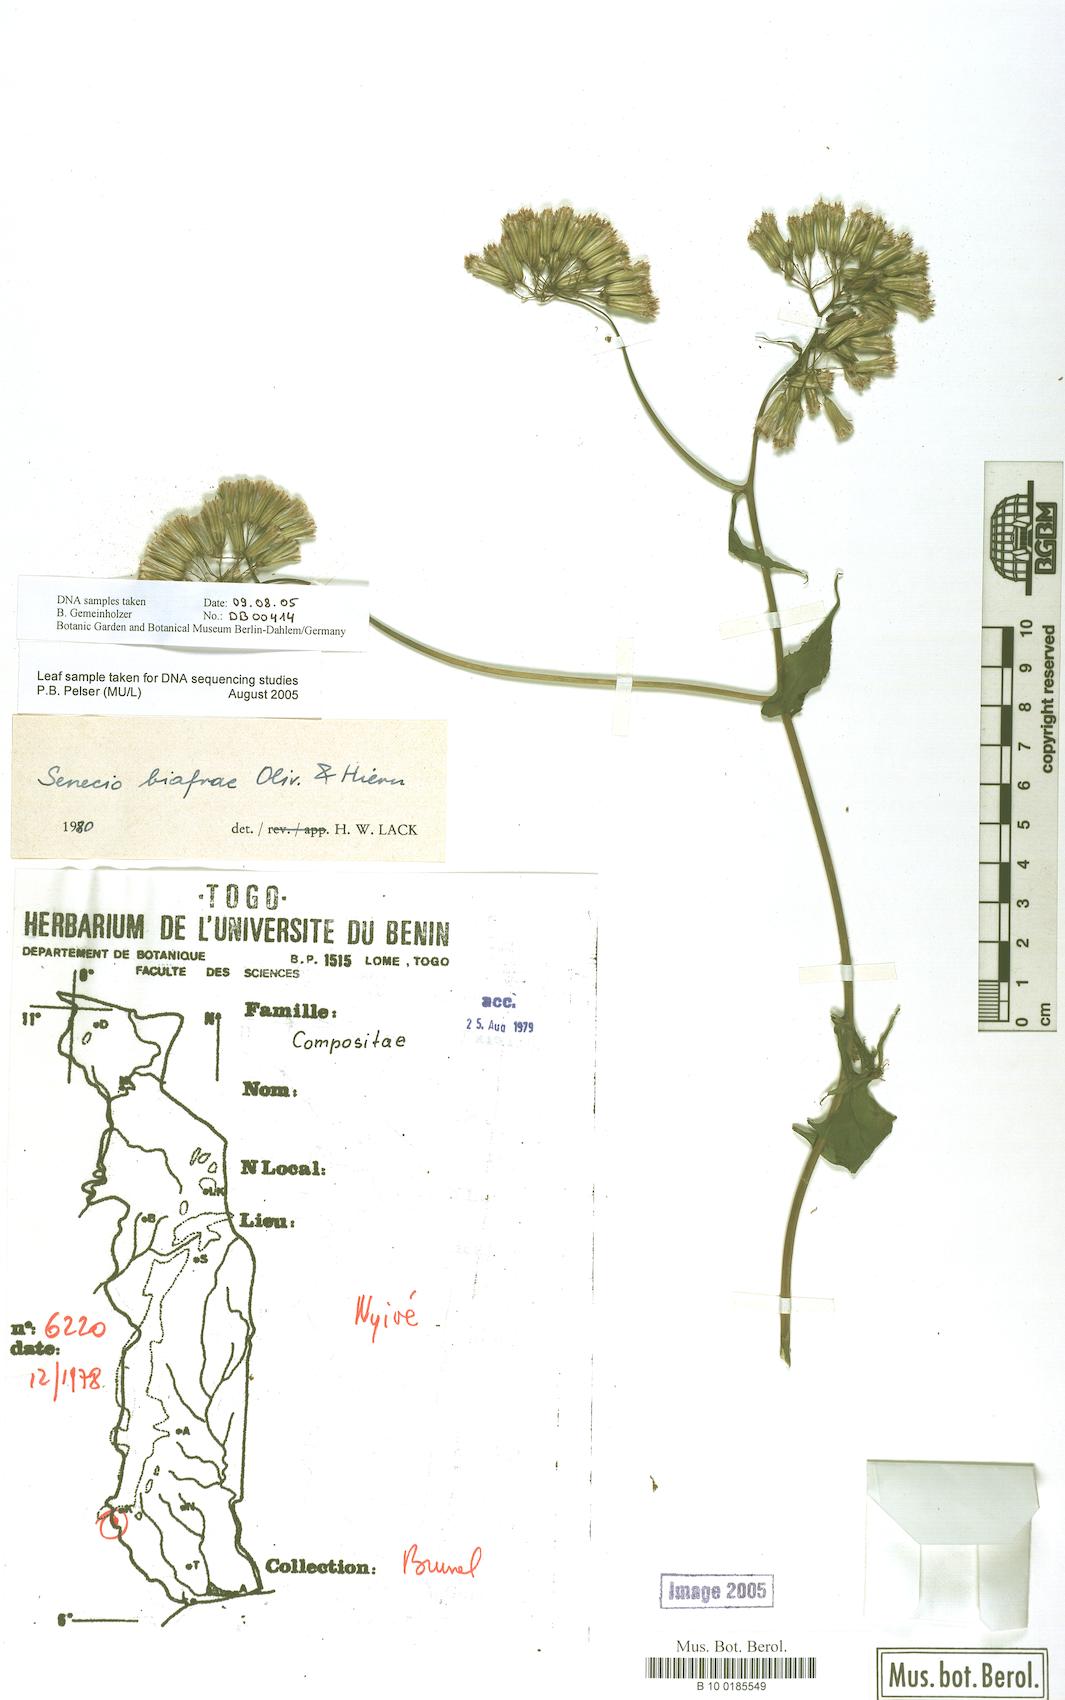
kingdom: Plantae
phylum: Tracheophyta
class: Magnoliopsida
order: Asterales
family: Asteraceae
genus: Solanecio
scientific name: Solanecio biafrae
